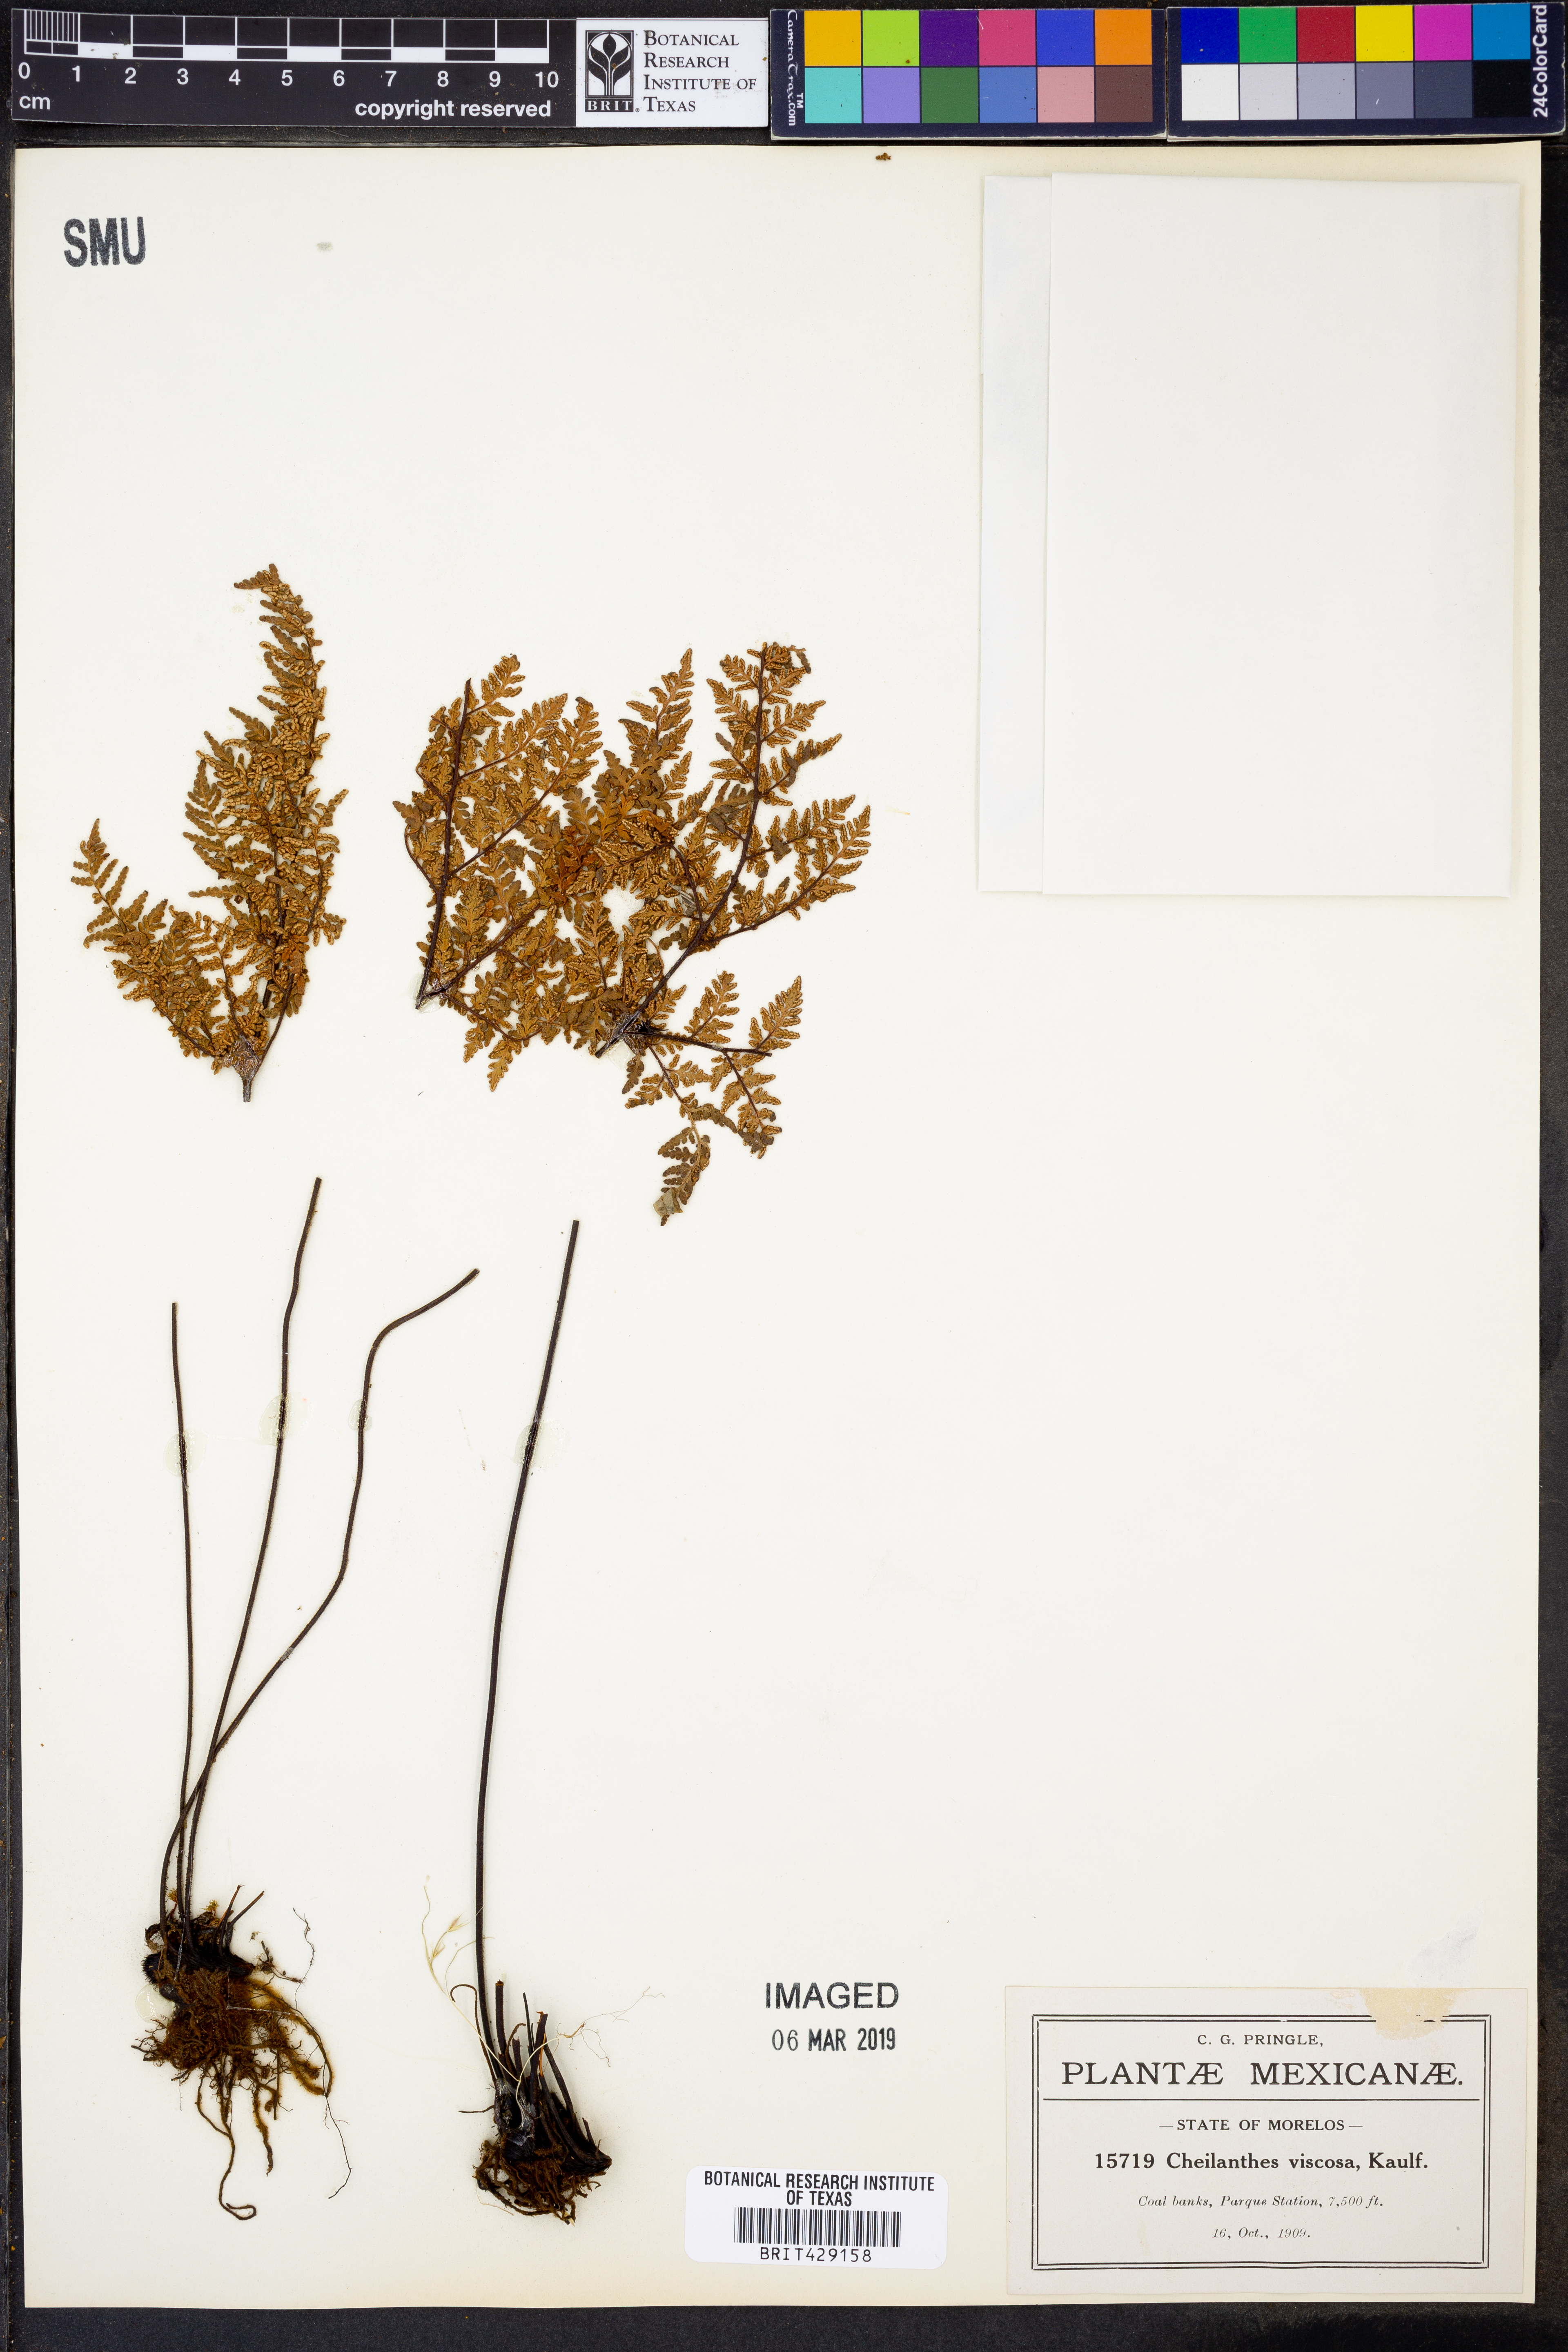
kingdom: Plantae
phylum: Tracheophyta
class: Polypodiopsida
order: Polypodiales
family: Pteridaceae
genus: Gaga
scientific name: Gaga kaulfussii
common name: Glandular lip fern
